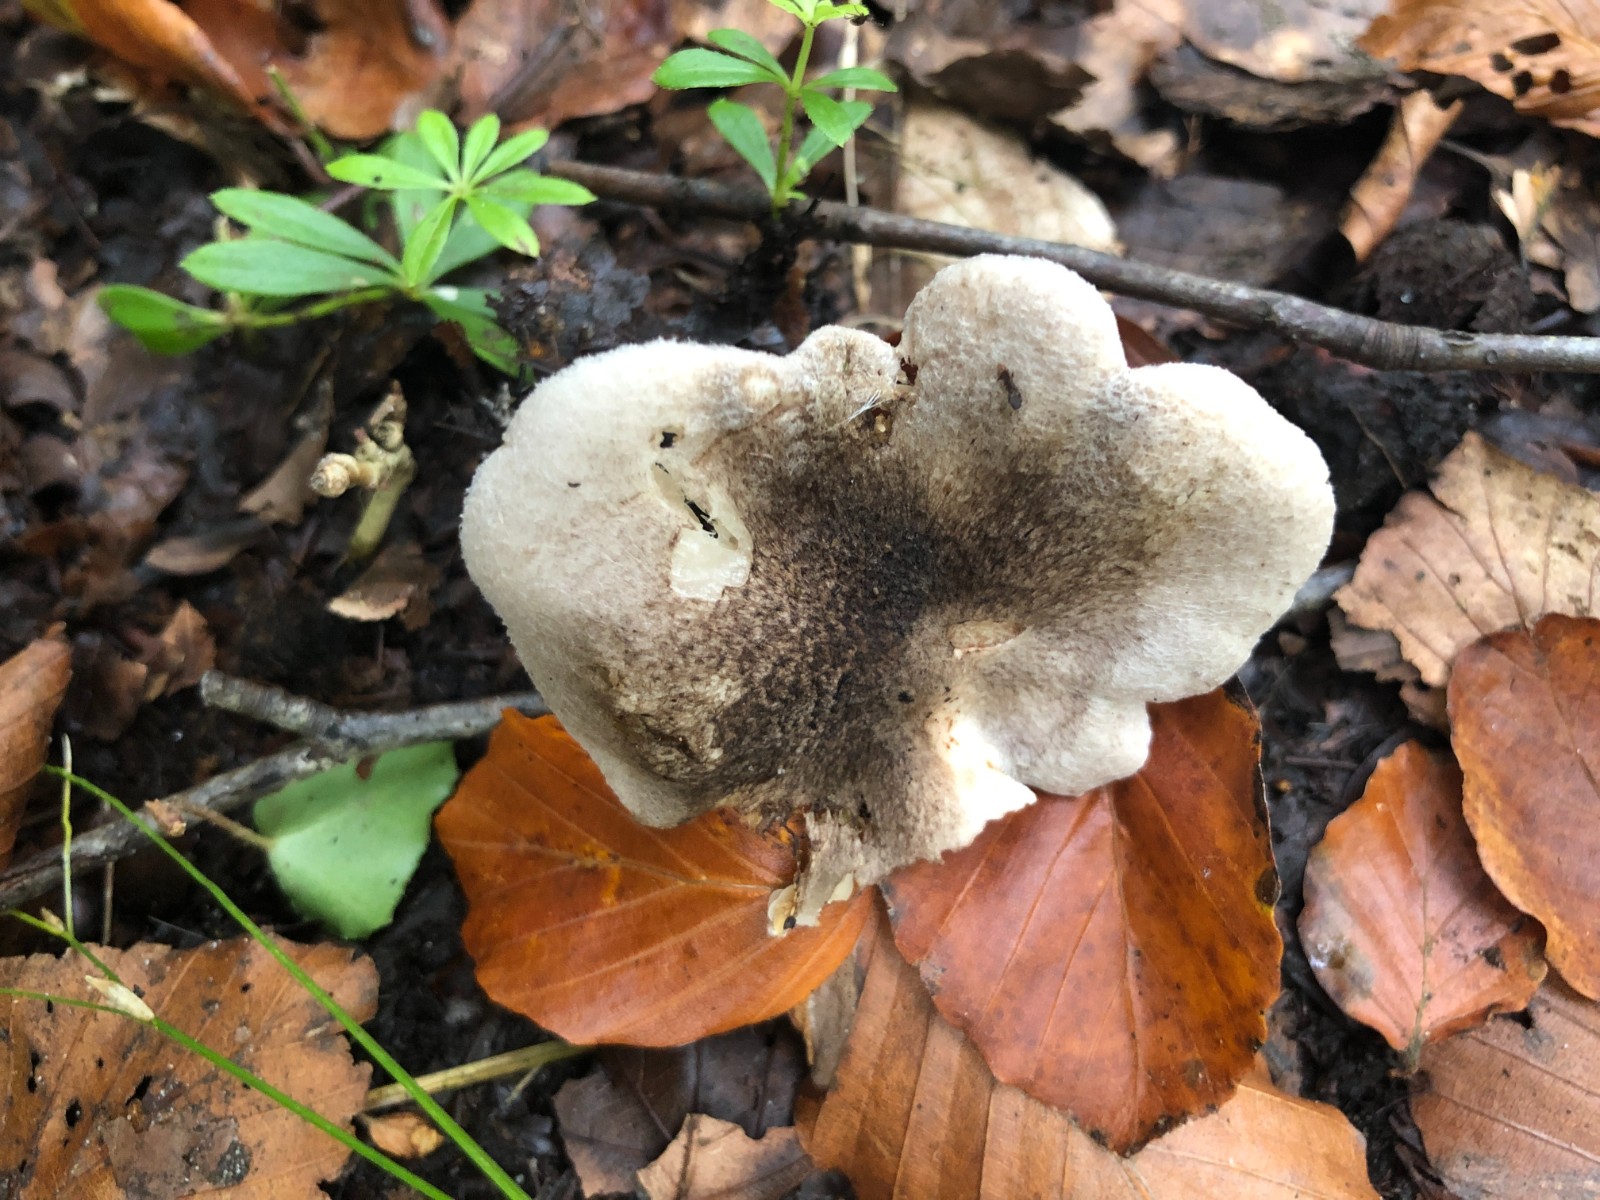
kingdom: Fungi
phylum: Basidiomycota
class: Agaricomycetes
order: Agaricales
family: Tricholomataceae
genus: Tricholoma
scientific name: Tricholoma scalpturatum
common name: gulplettet ridderhat
